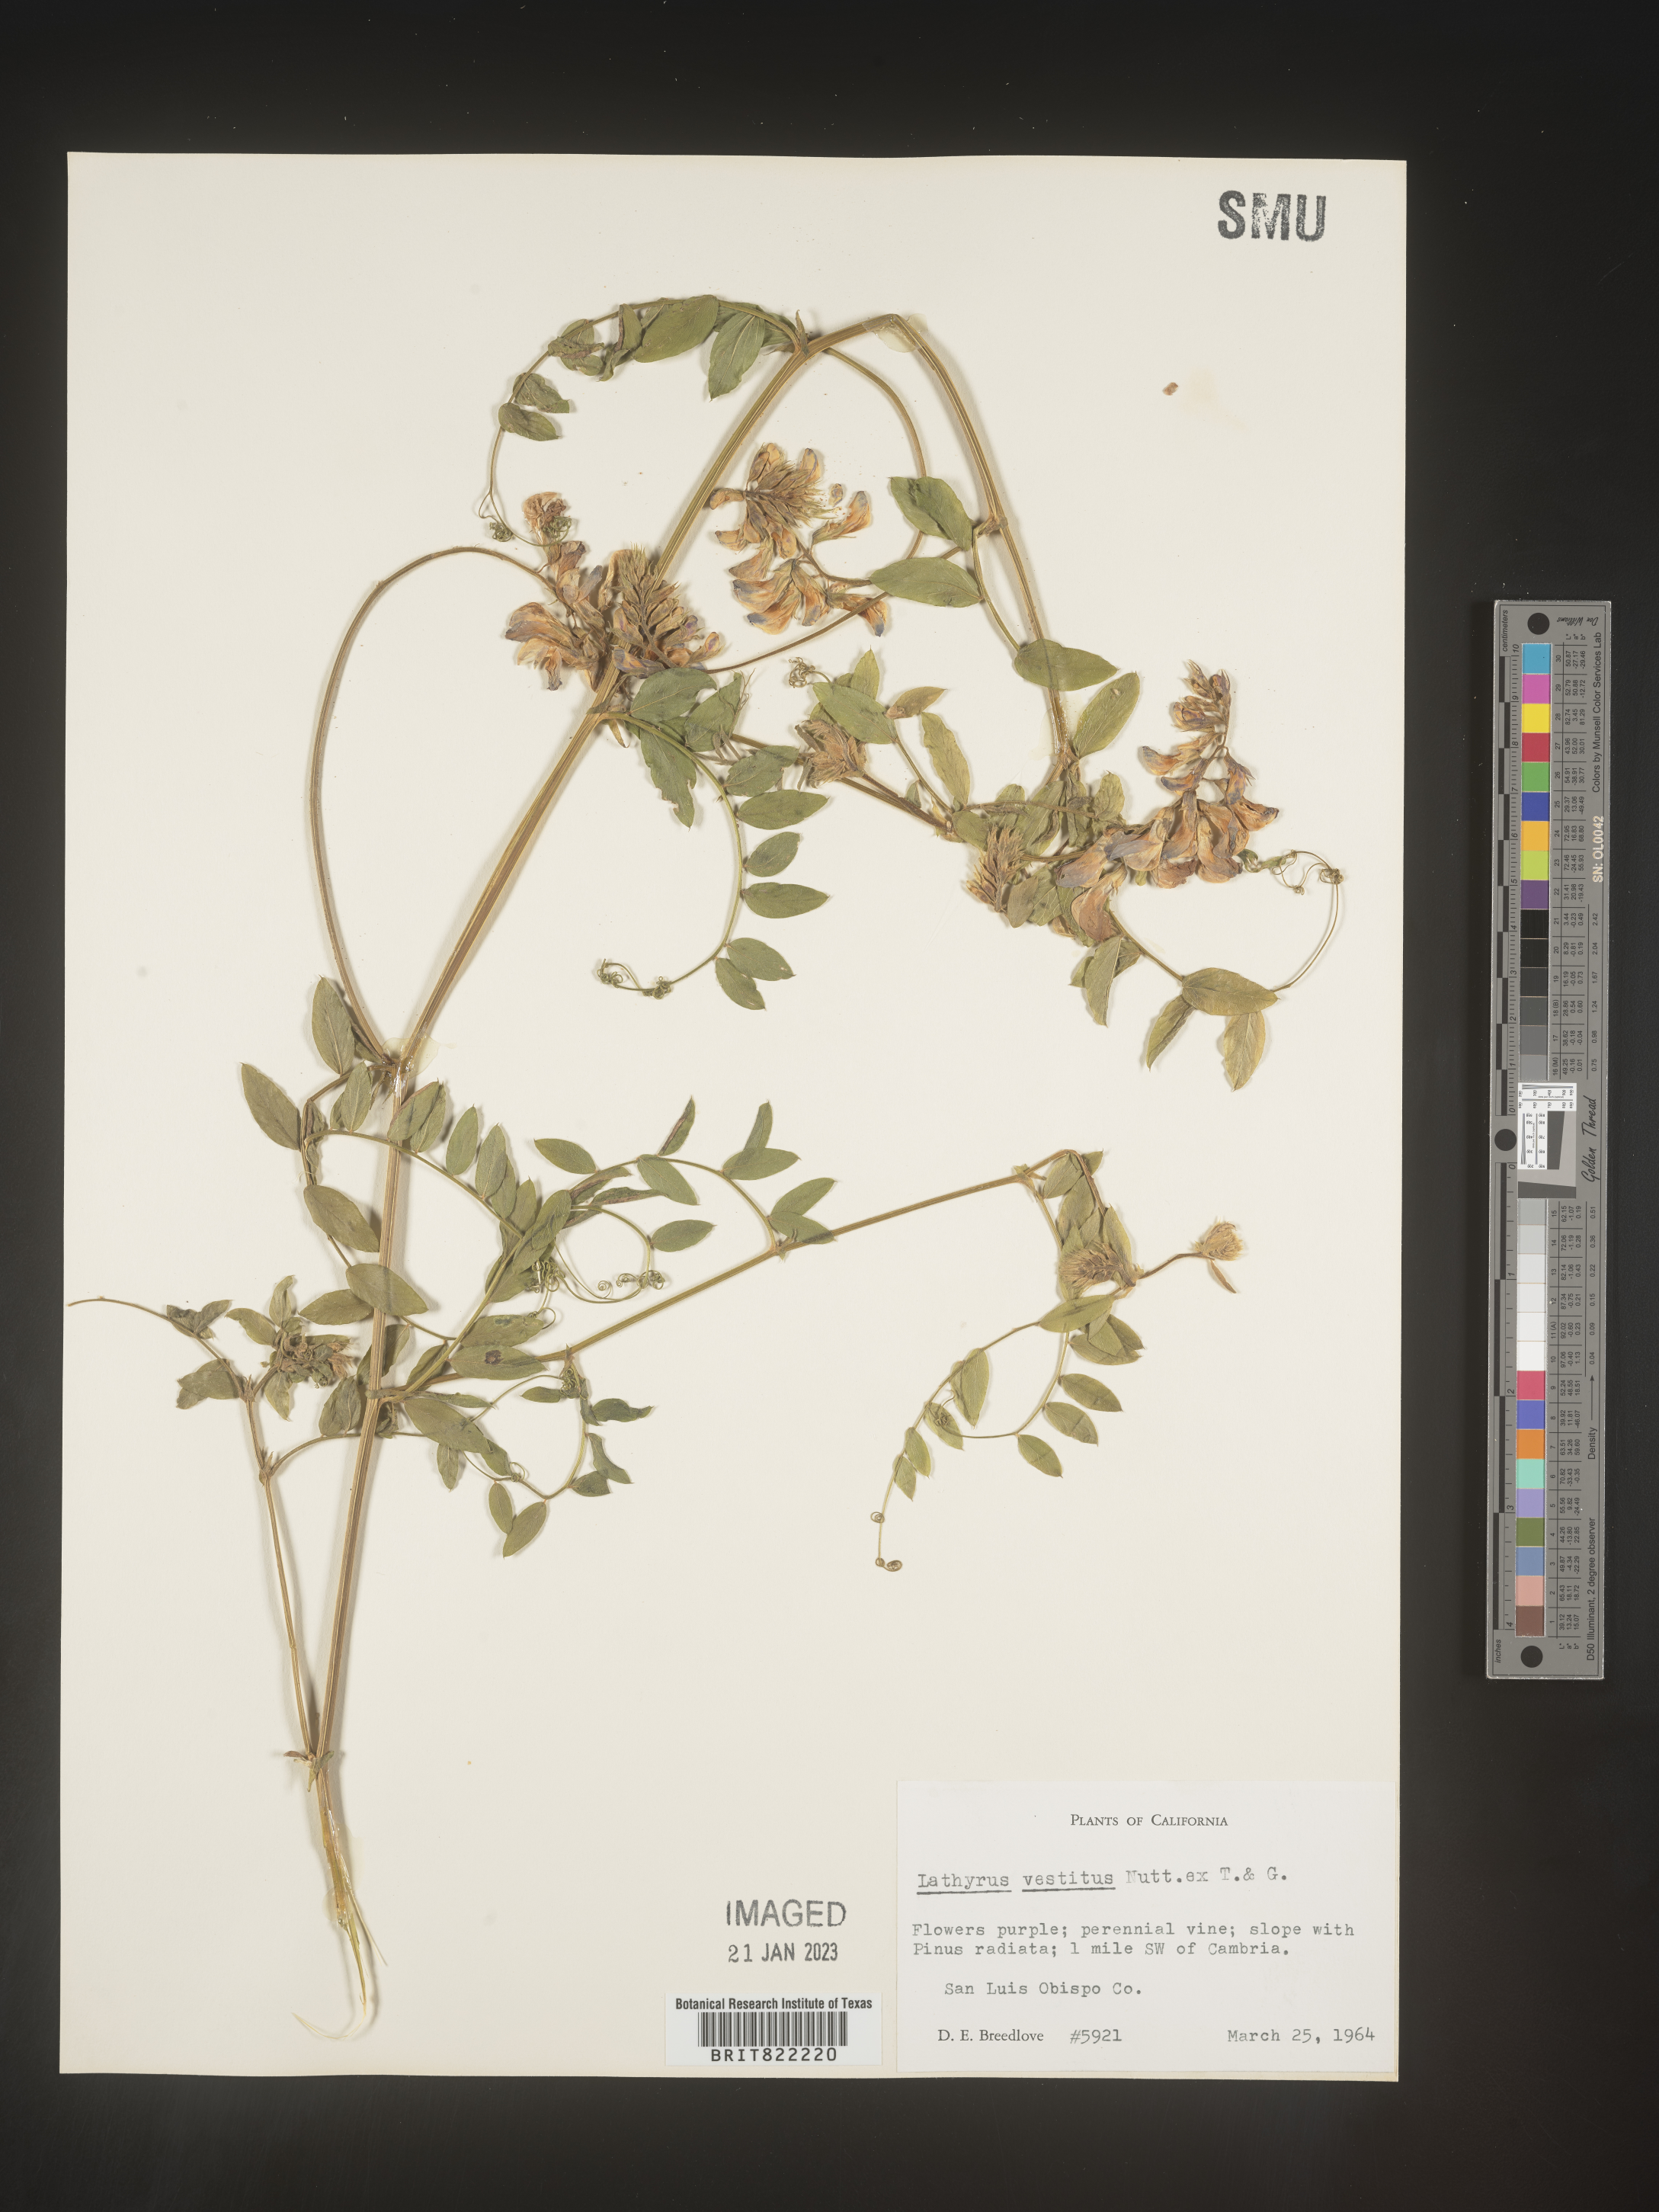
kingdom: Plantae
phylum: Tracheophyta
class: Magnoliopsida
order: Fabales
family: Fabaceae
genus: Lathyrus
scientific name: Lathyrus vestitus
